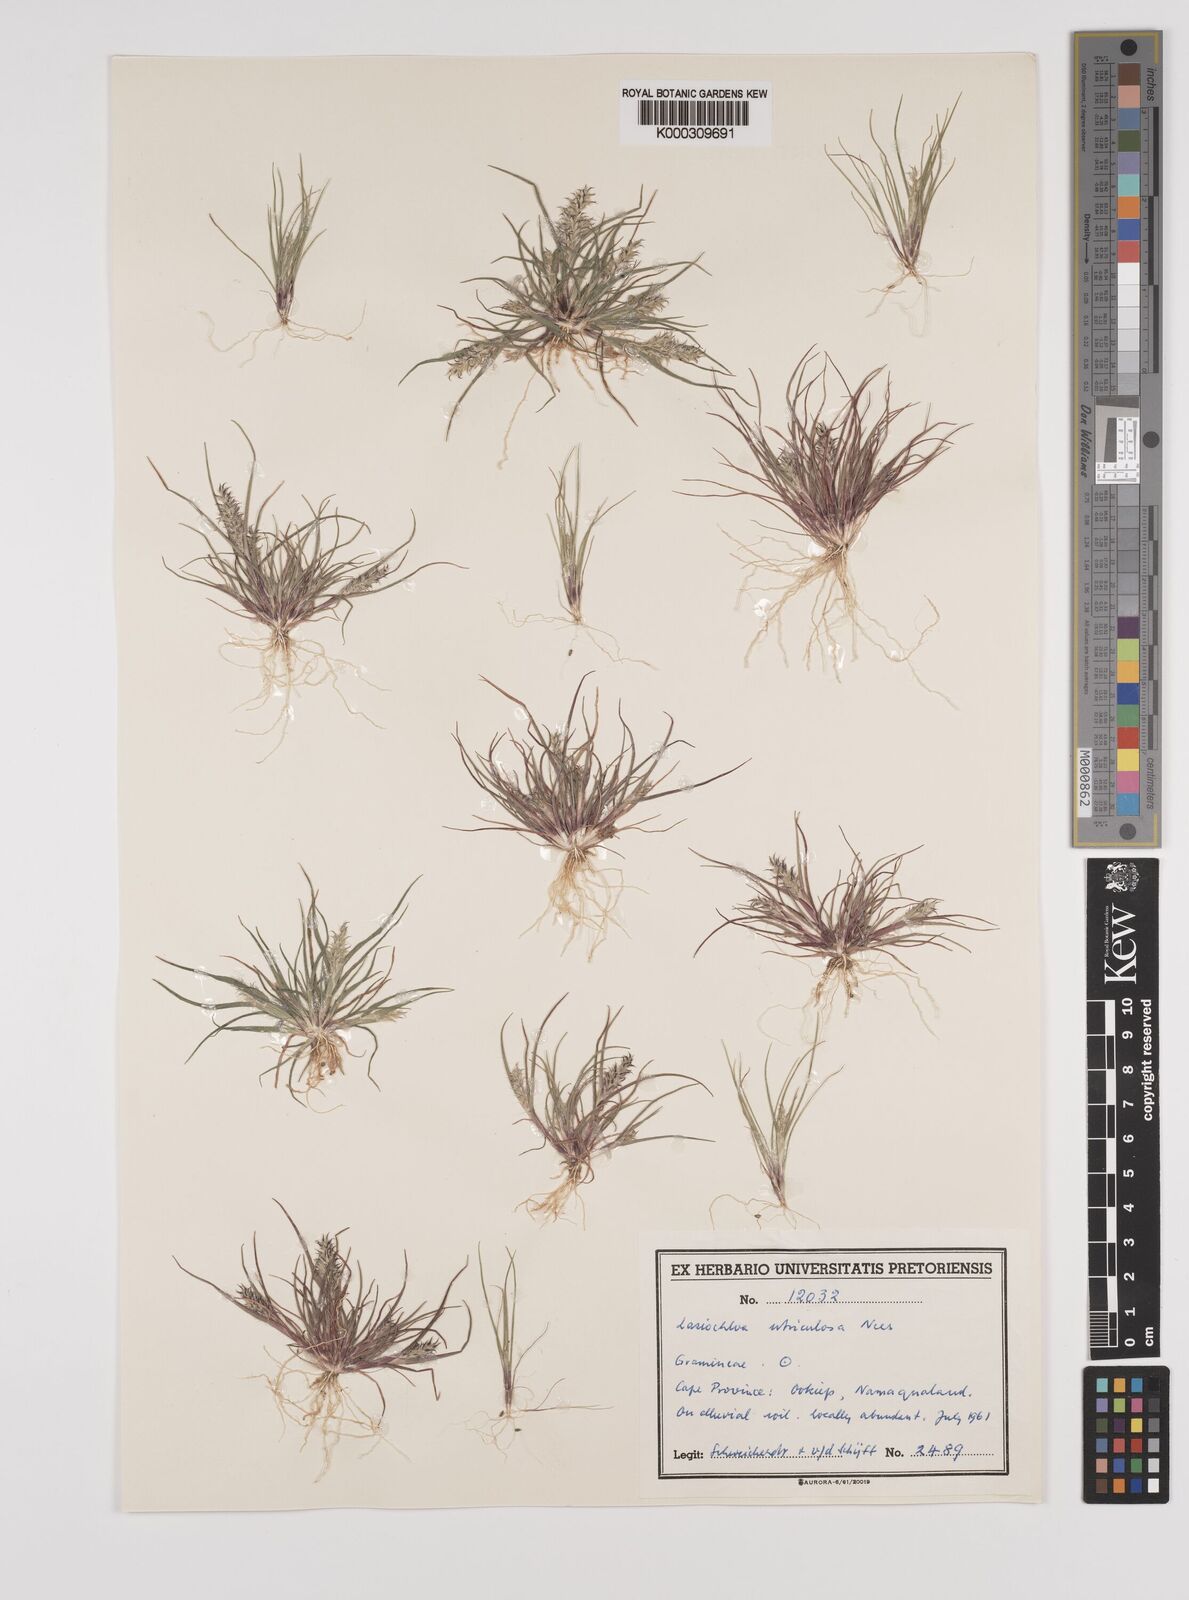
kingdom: Plantae
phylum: Tracheophyta
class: Liliopsida
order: Poales
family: Poaceae
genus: Tribolium
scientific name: Tribolium utriculosum
